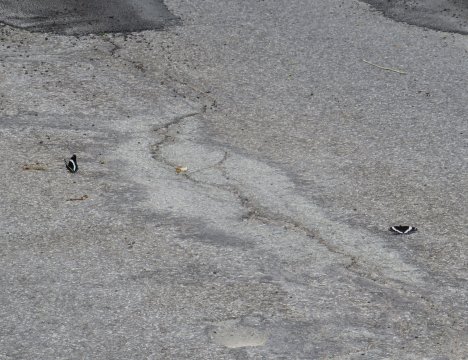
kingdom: Animalia
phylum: Arthropoda
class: Insecta
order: Lepidoptera
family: Nymphalidae
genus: Limenitis
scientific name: Limenitis arthemis
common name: Red-spotted Admiral
